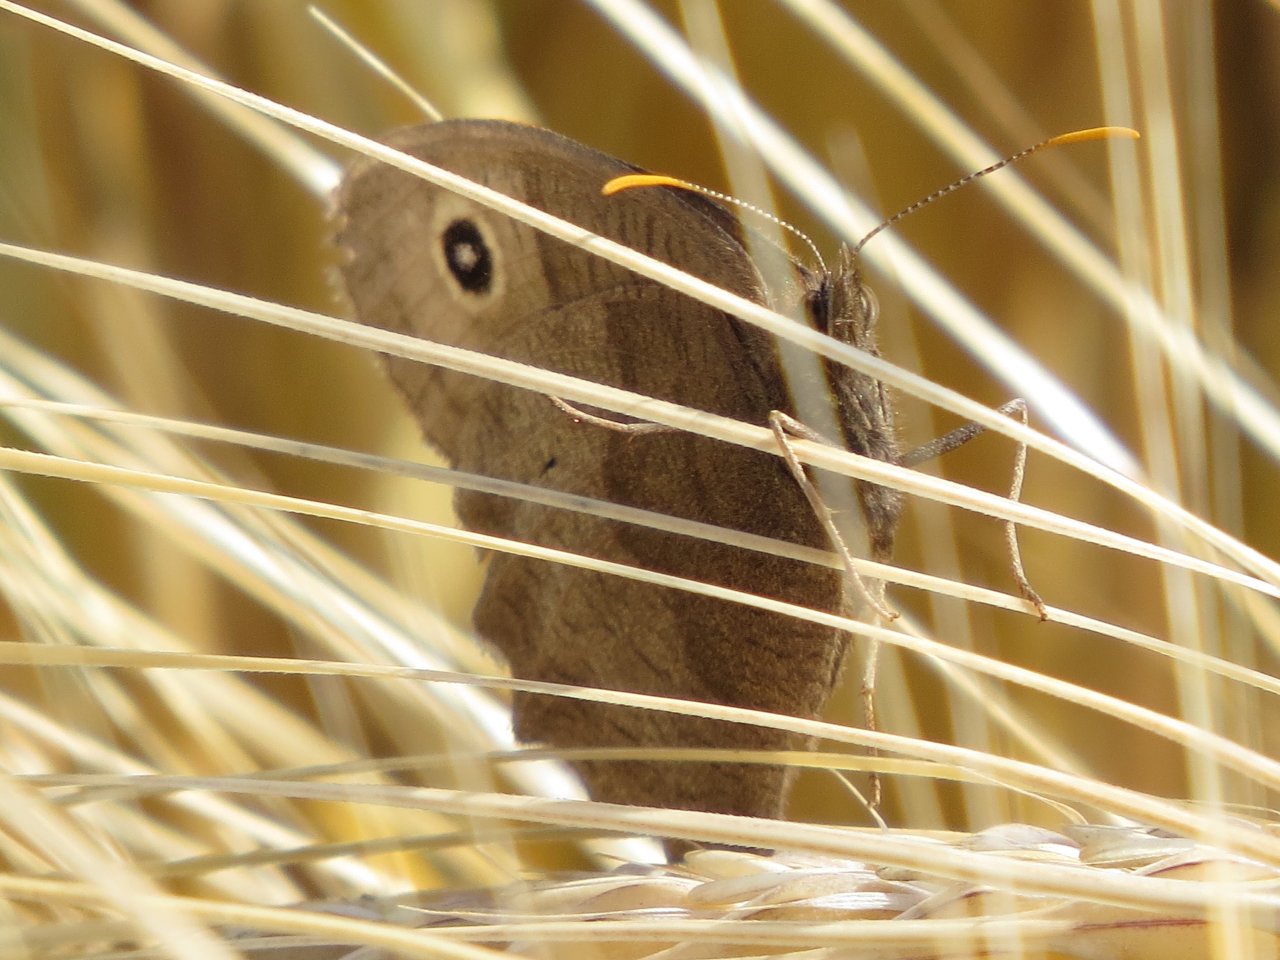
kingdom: Animalia
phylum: Arthropoda
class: Insecta
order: Lepidoptera
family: Nymphalidae
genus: Cercyonis
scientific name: Cercyonis pegala
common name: Common Wood-Nymph
